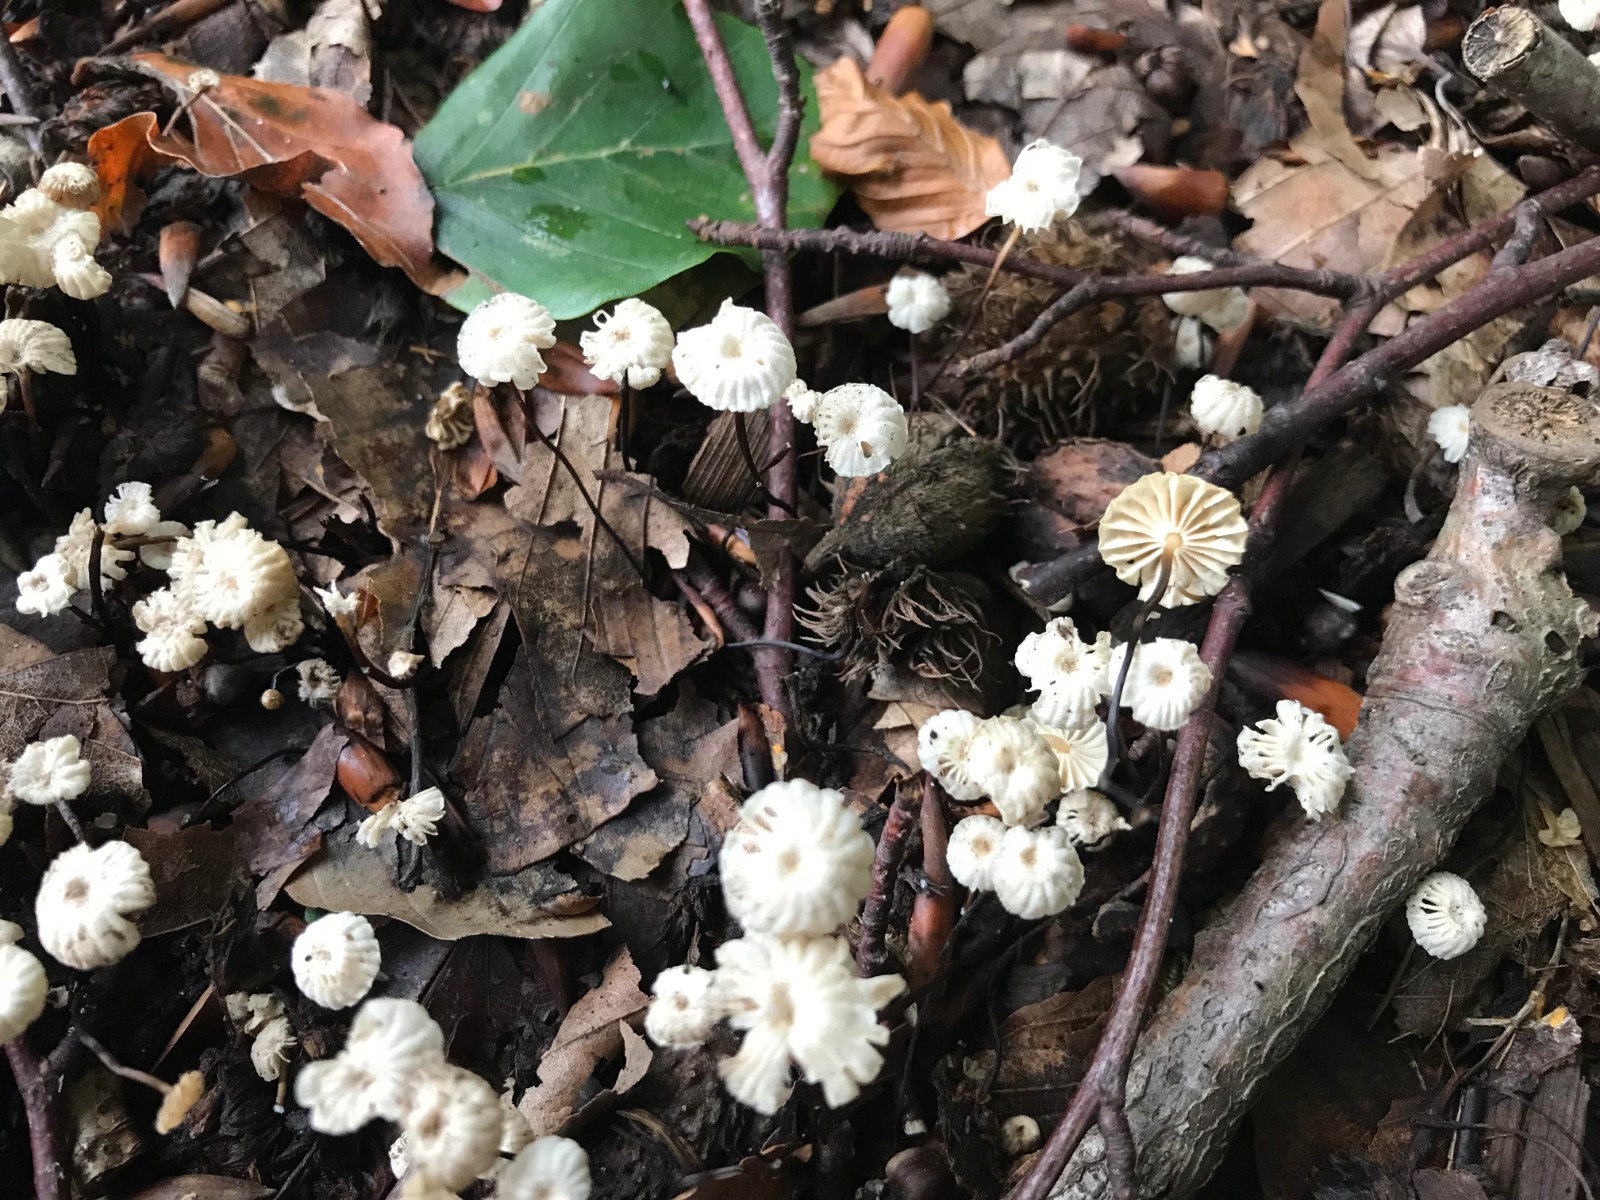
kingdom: Fungi
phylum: Basidiomycota
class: Agaricomycetes
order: Agaricales
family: Marasmiaceae
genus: Marasmius
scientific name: Marasmius rotula
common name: hjul-bruskhat
